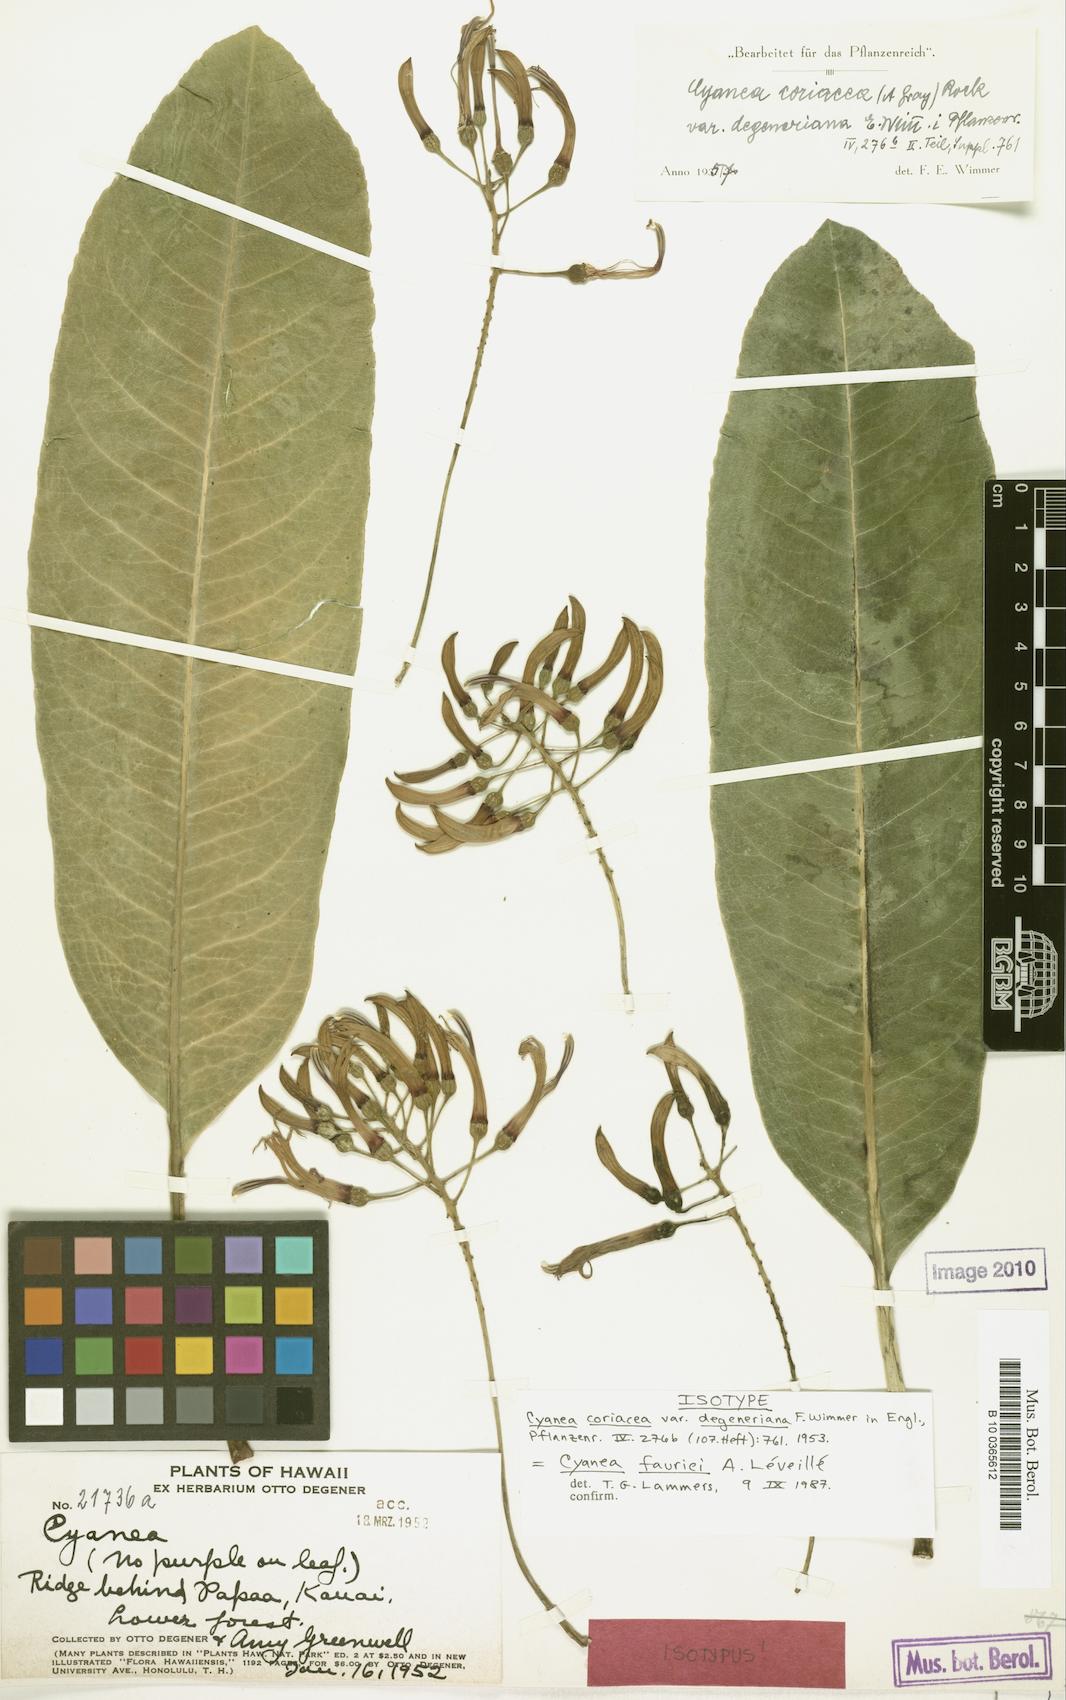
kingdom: Plantae
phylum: Tracheophyta
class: Magnoliopsida
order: Asterales
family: Campanulaceae
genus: Cyanea
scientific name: Cyanea coriacea
